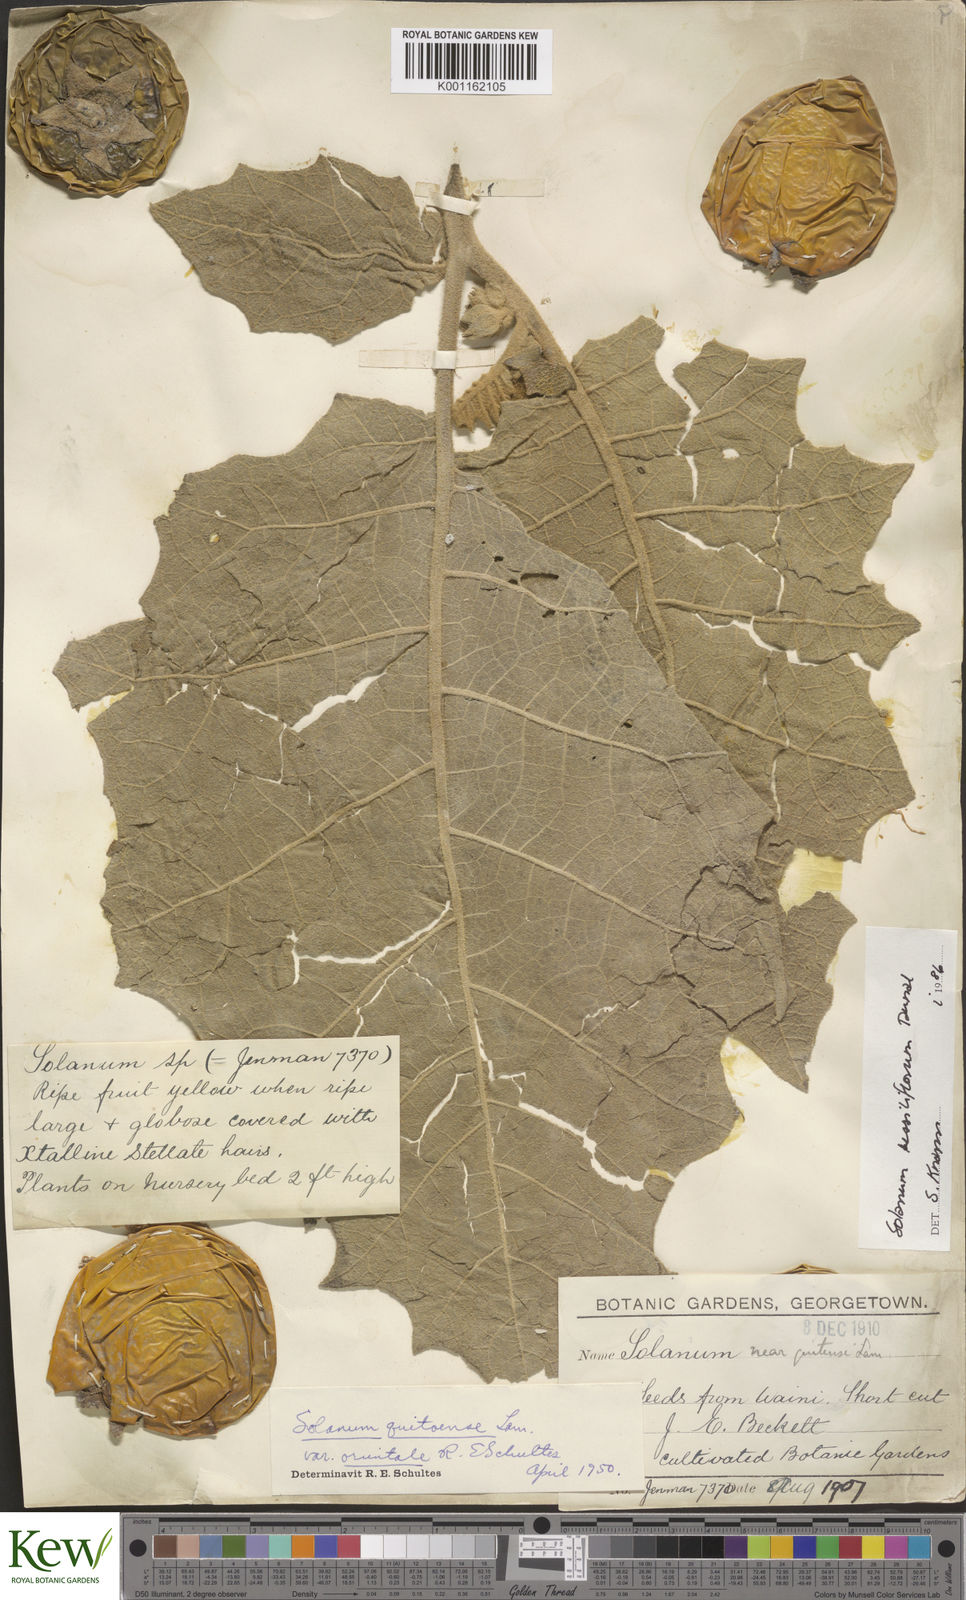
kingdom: Plantae
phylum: Tracheophyta
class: Magnoliopsida
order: Solanales
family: Solanaceae
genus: Solanum
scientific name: Solanum sessiliflorum
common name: Orinoco-apple
